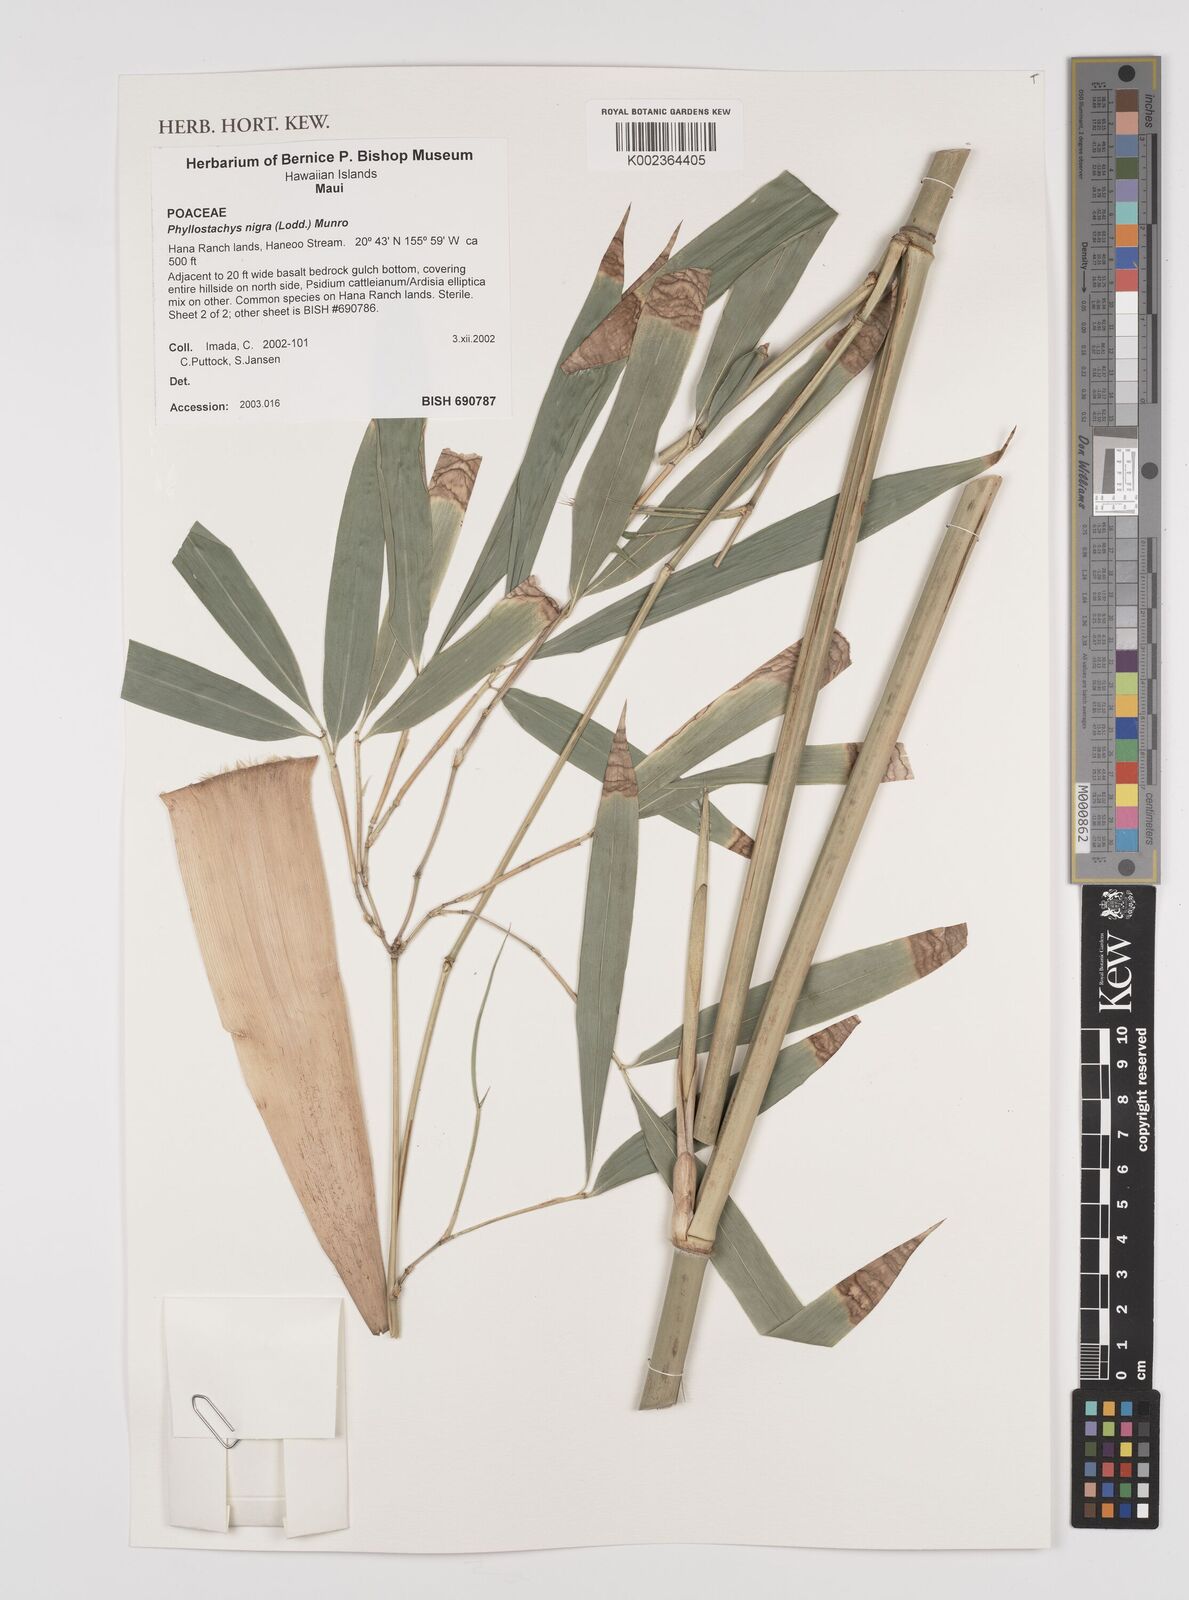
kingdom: Plantae
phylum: Tracheophyta
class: Liliopsida
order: Poales
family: Poaceae
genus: Phyllostachys
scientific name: Phyllostachys nigra
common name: Black bamboo
